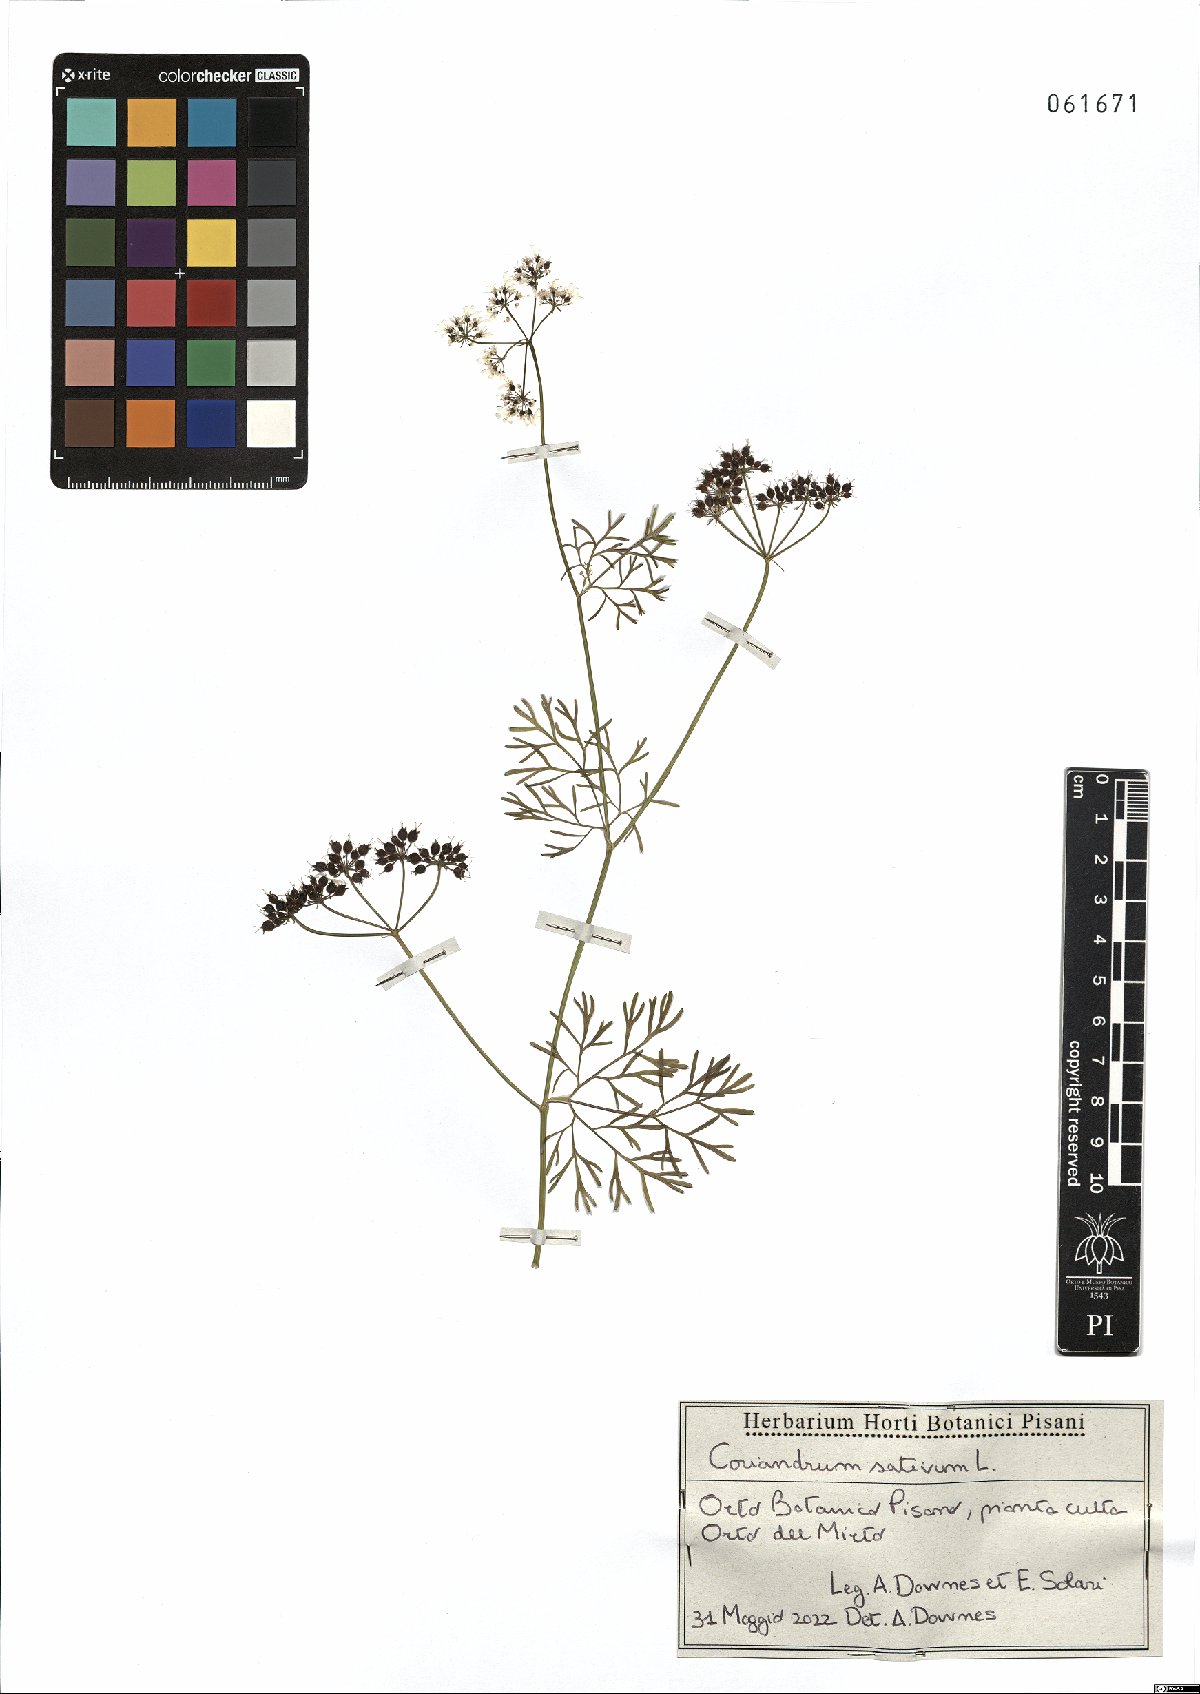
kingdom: Plantae
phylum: Tracheophyta
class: Magnoliopsida
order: Apiales
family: Apiaceae
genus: Coriandrum
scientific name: Coriandrum sativum
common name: Coriander
